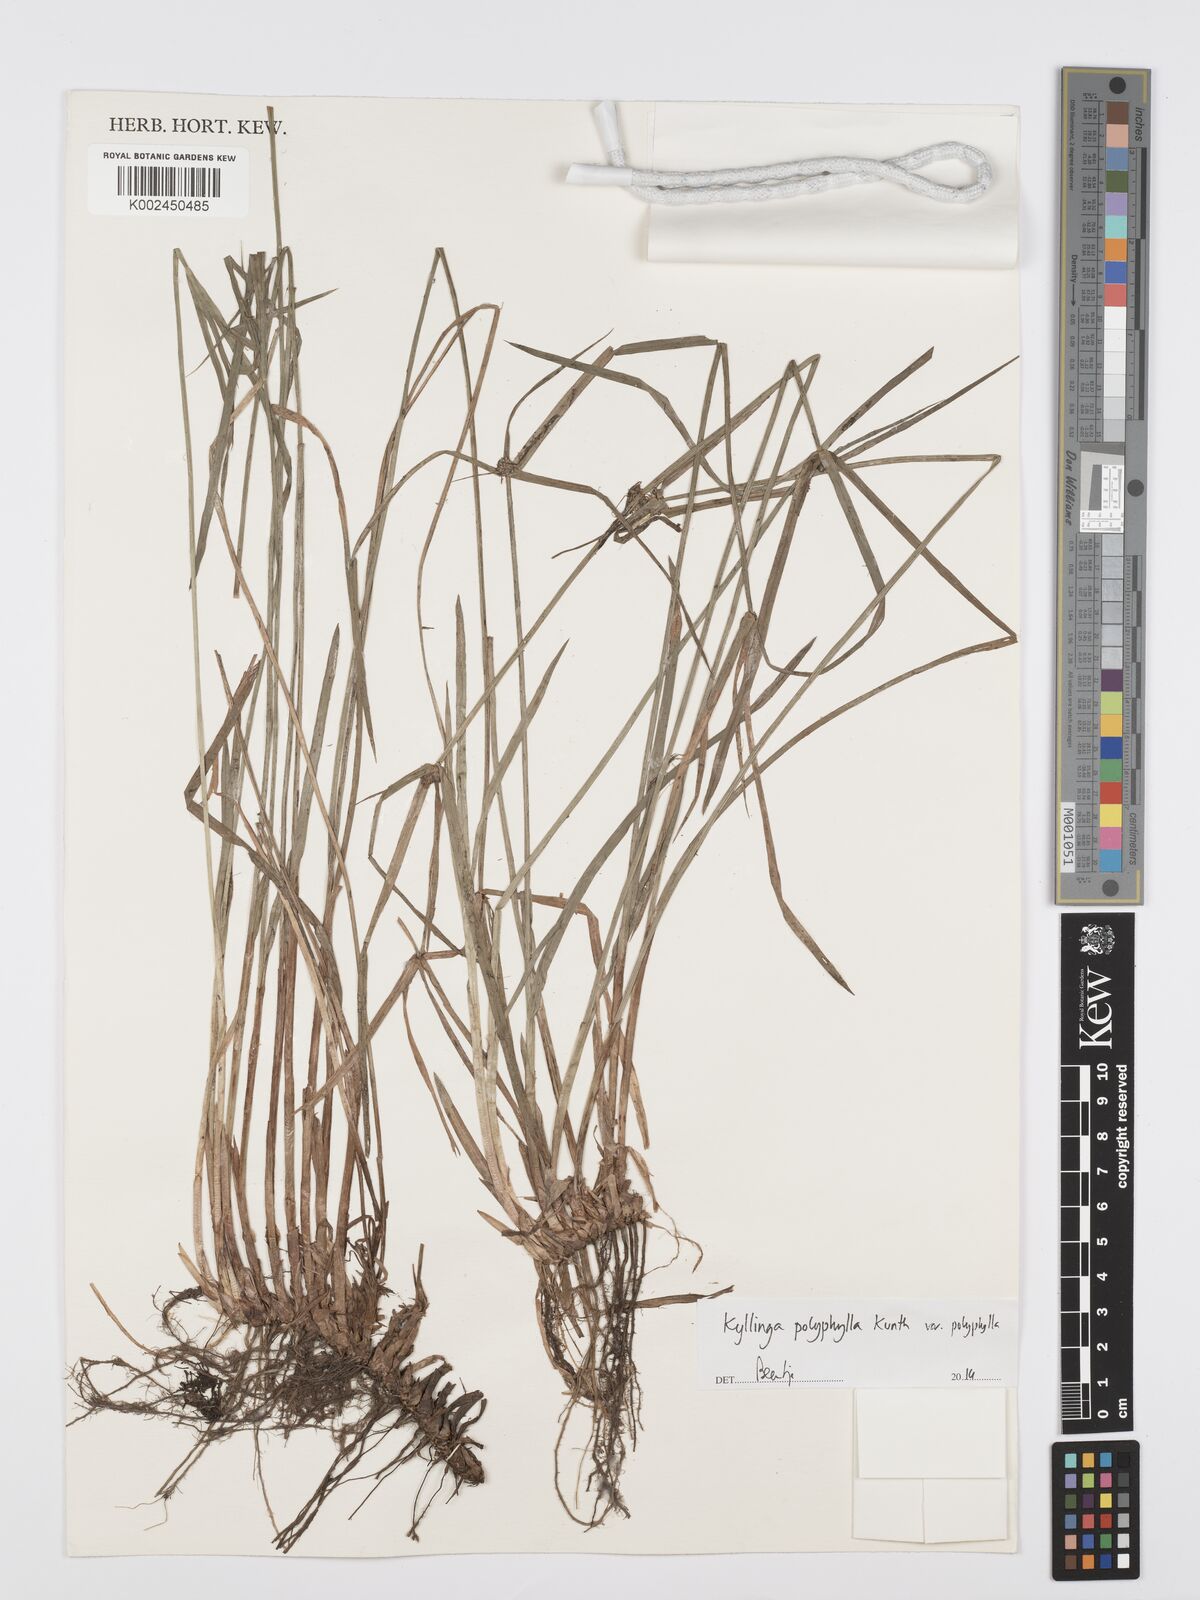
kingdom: Plantae
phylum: Tracheophyta
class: Liliopsida
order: Poales
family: Cyperaceae
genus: Cyperus
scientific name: Cyperus bulbosus
